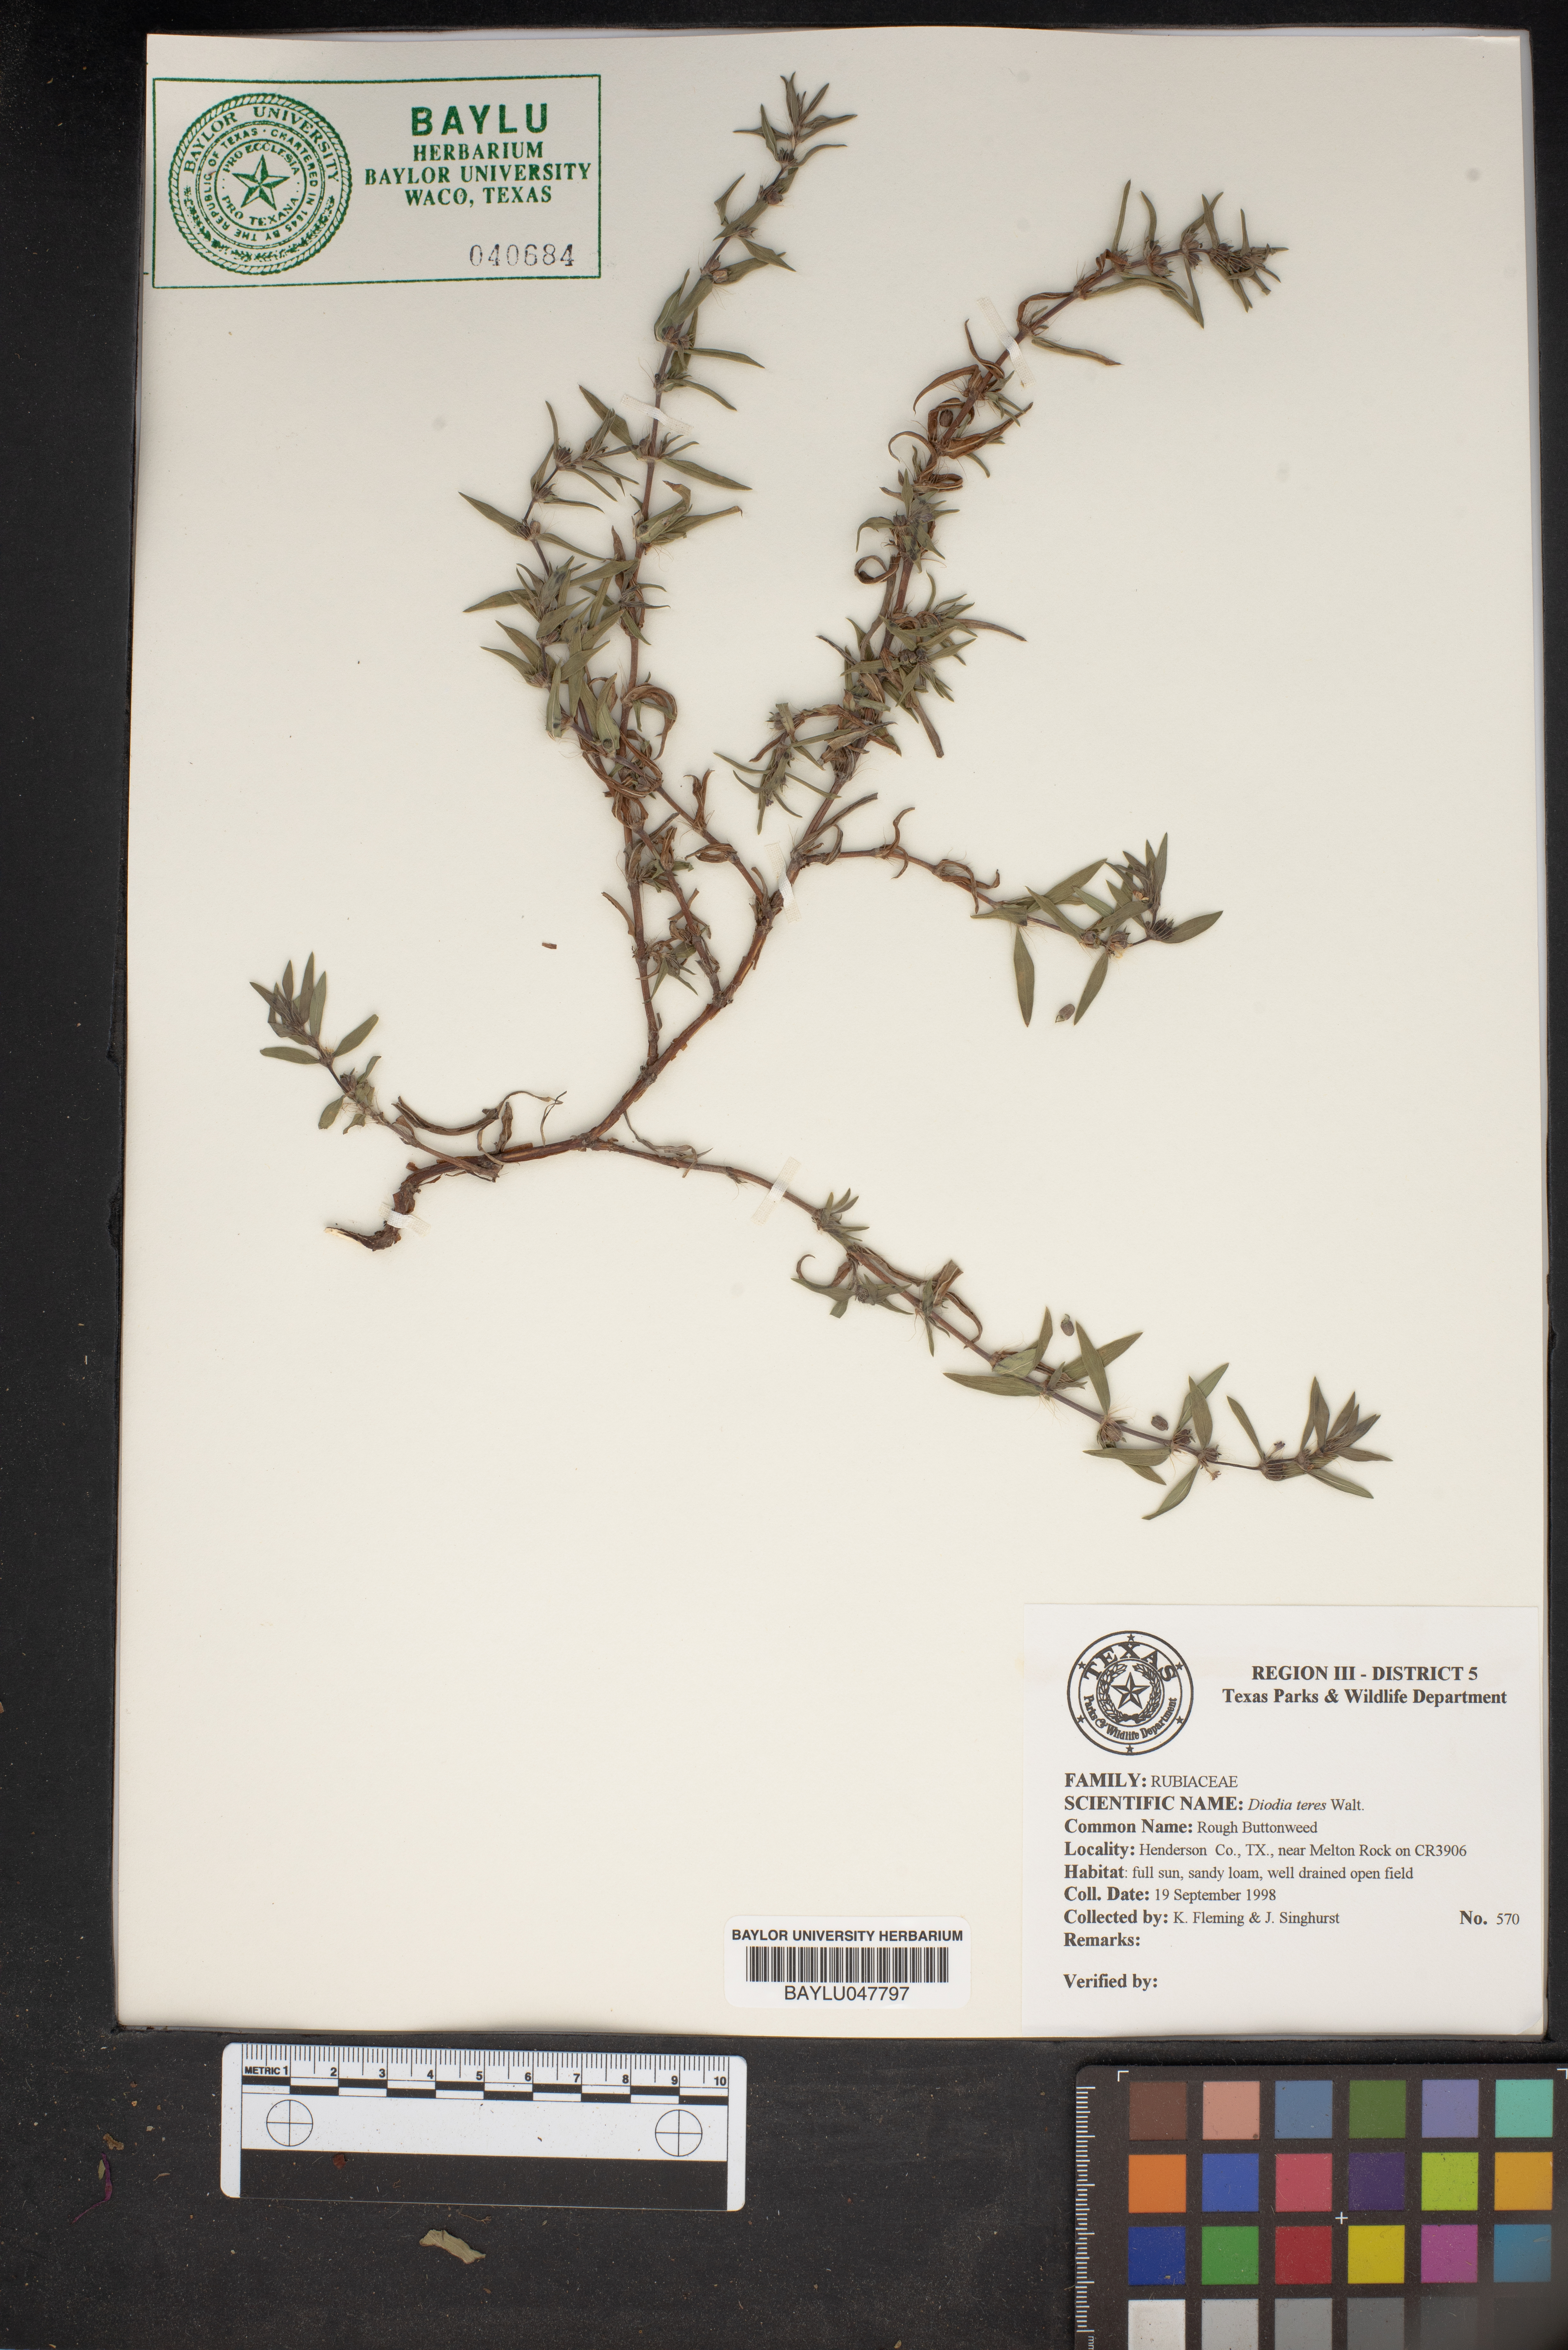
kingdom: Plantae
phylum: Tracheophyta
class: Magnoliopsida
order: Gentianales
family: Rubiaceae
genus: Hexasepalum
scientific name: Hexasepalum teres
